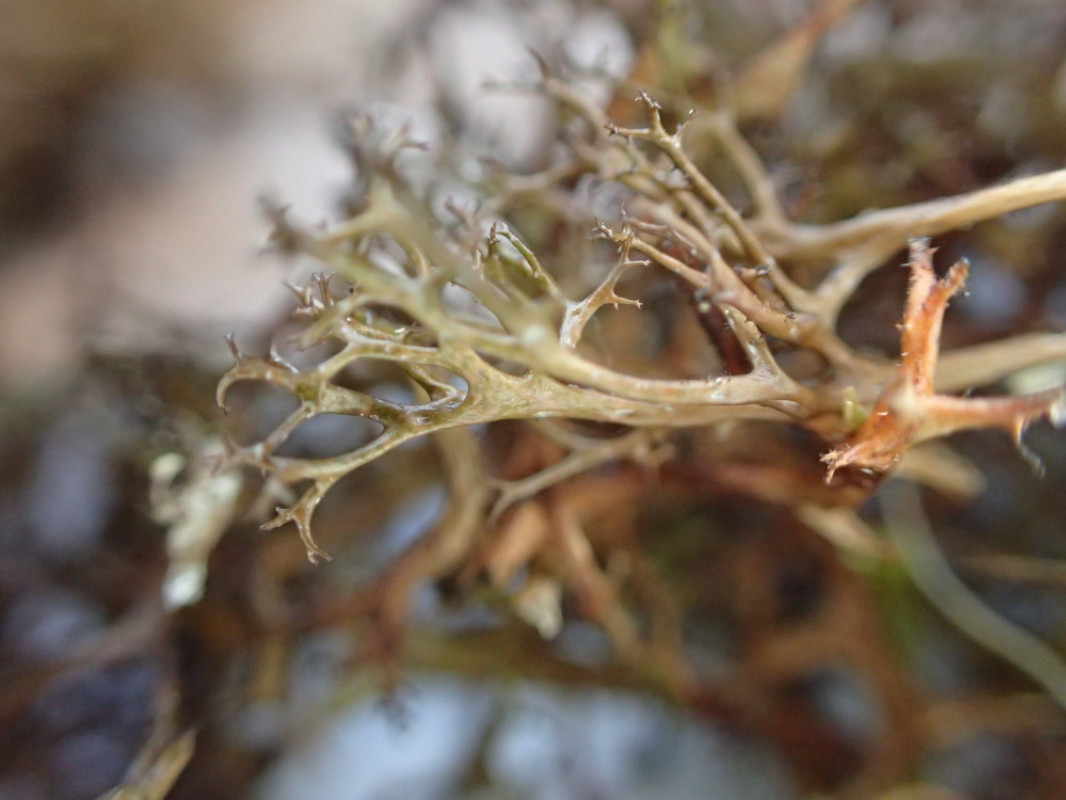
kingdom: Fungi
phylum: Ascomycota
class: Lecanoromycetes
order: Lecanorales
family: Parmeliaceae
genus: Cetraria
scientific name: Cetraria aculeata
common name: grubet tjørnelav
